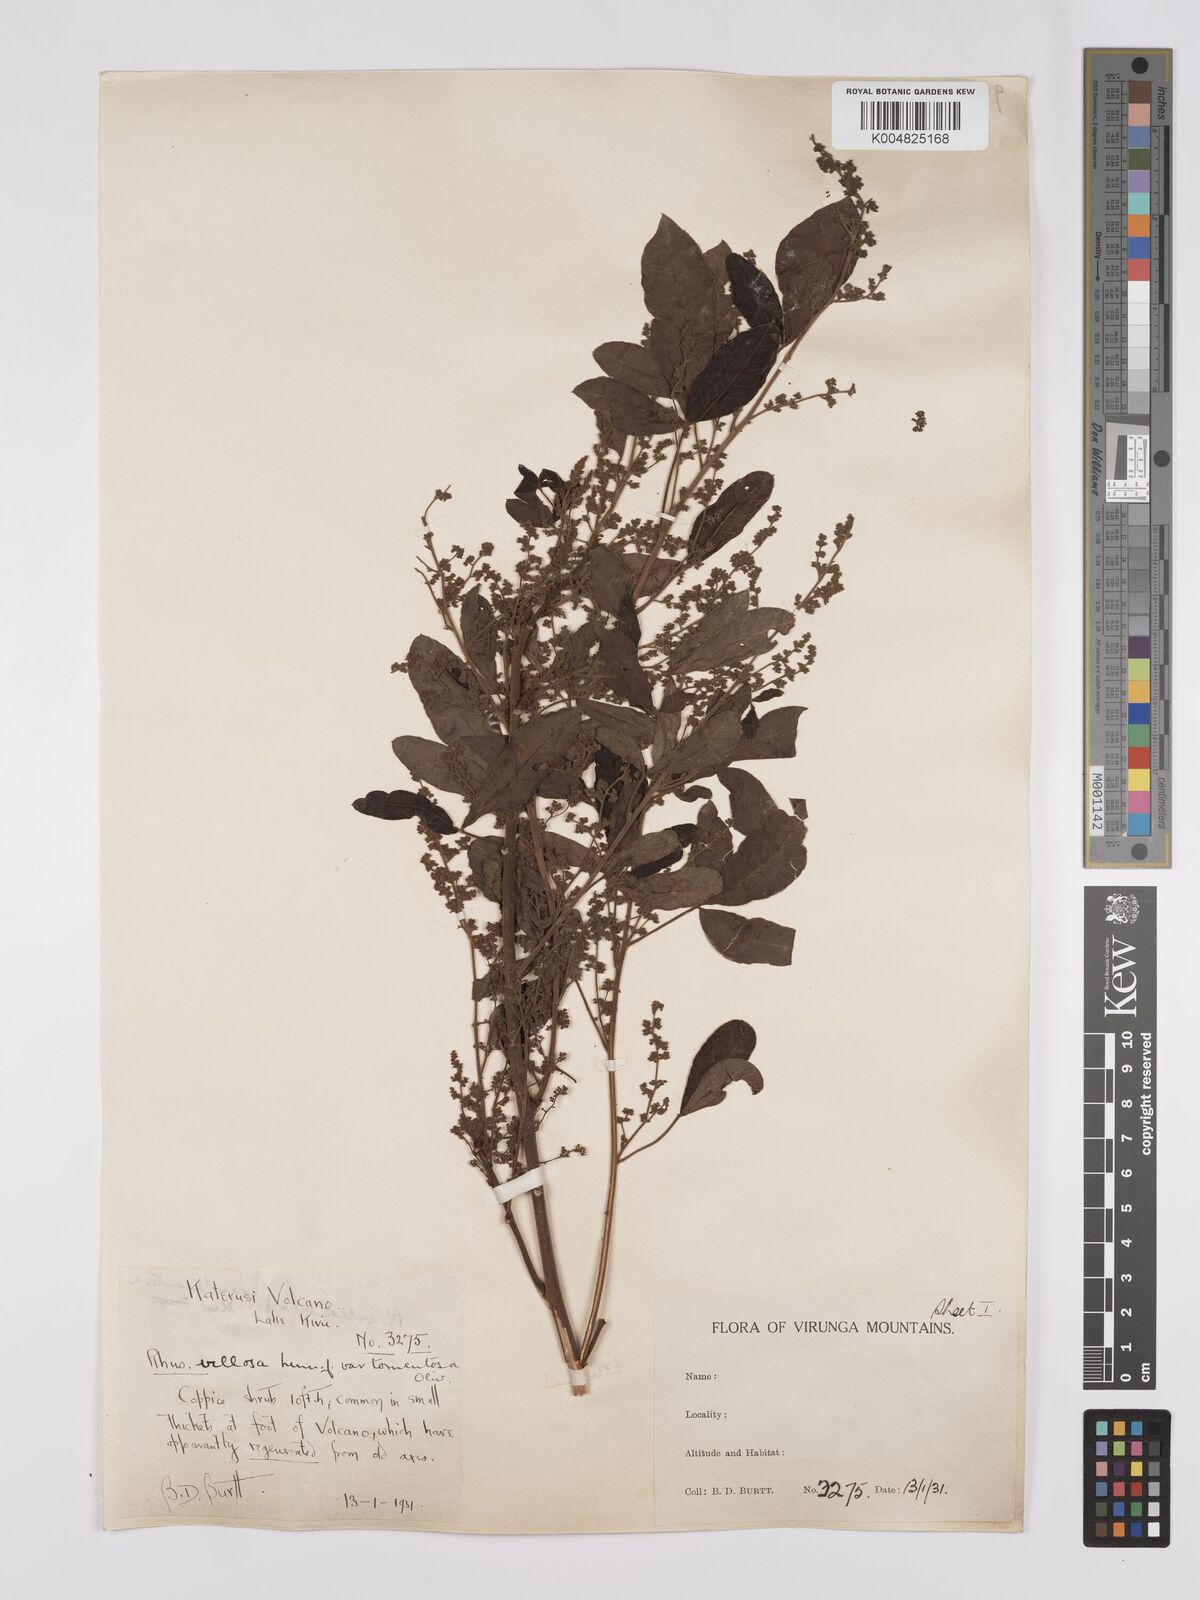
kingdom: Plantae
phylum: Tracheophyta
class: Magnoliopsida
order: Sapindales
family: Anacardiaceae
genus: Searsia
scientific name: Searsia longipes
